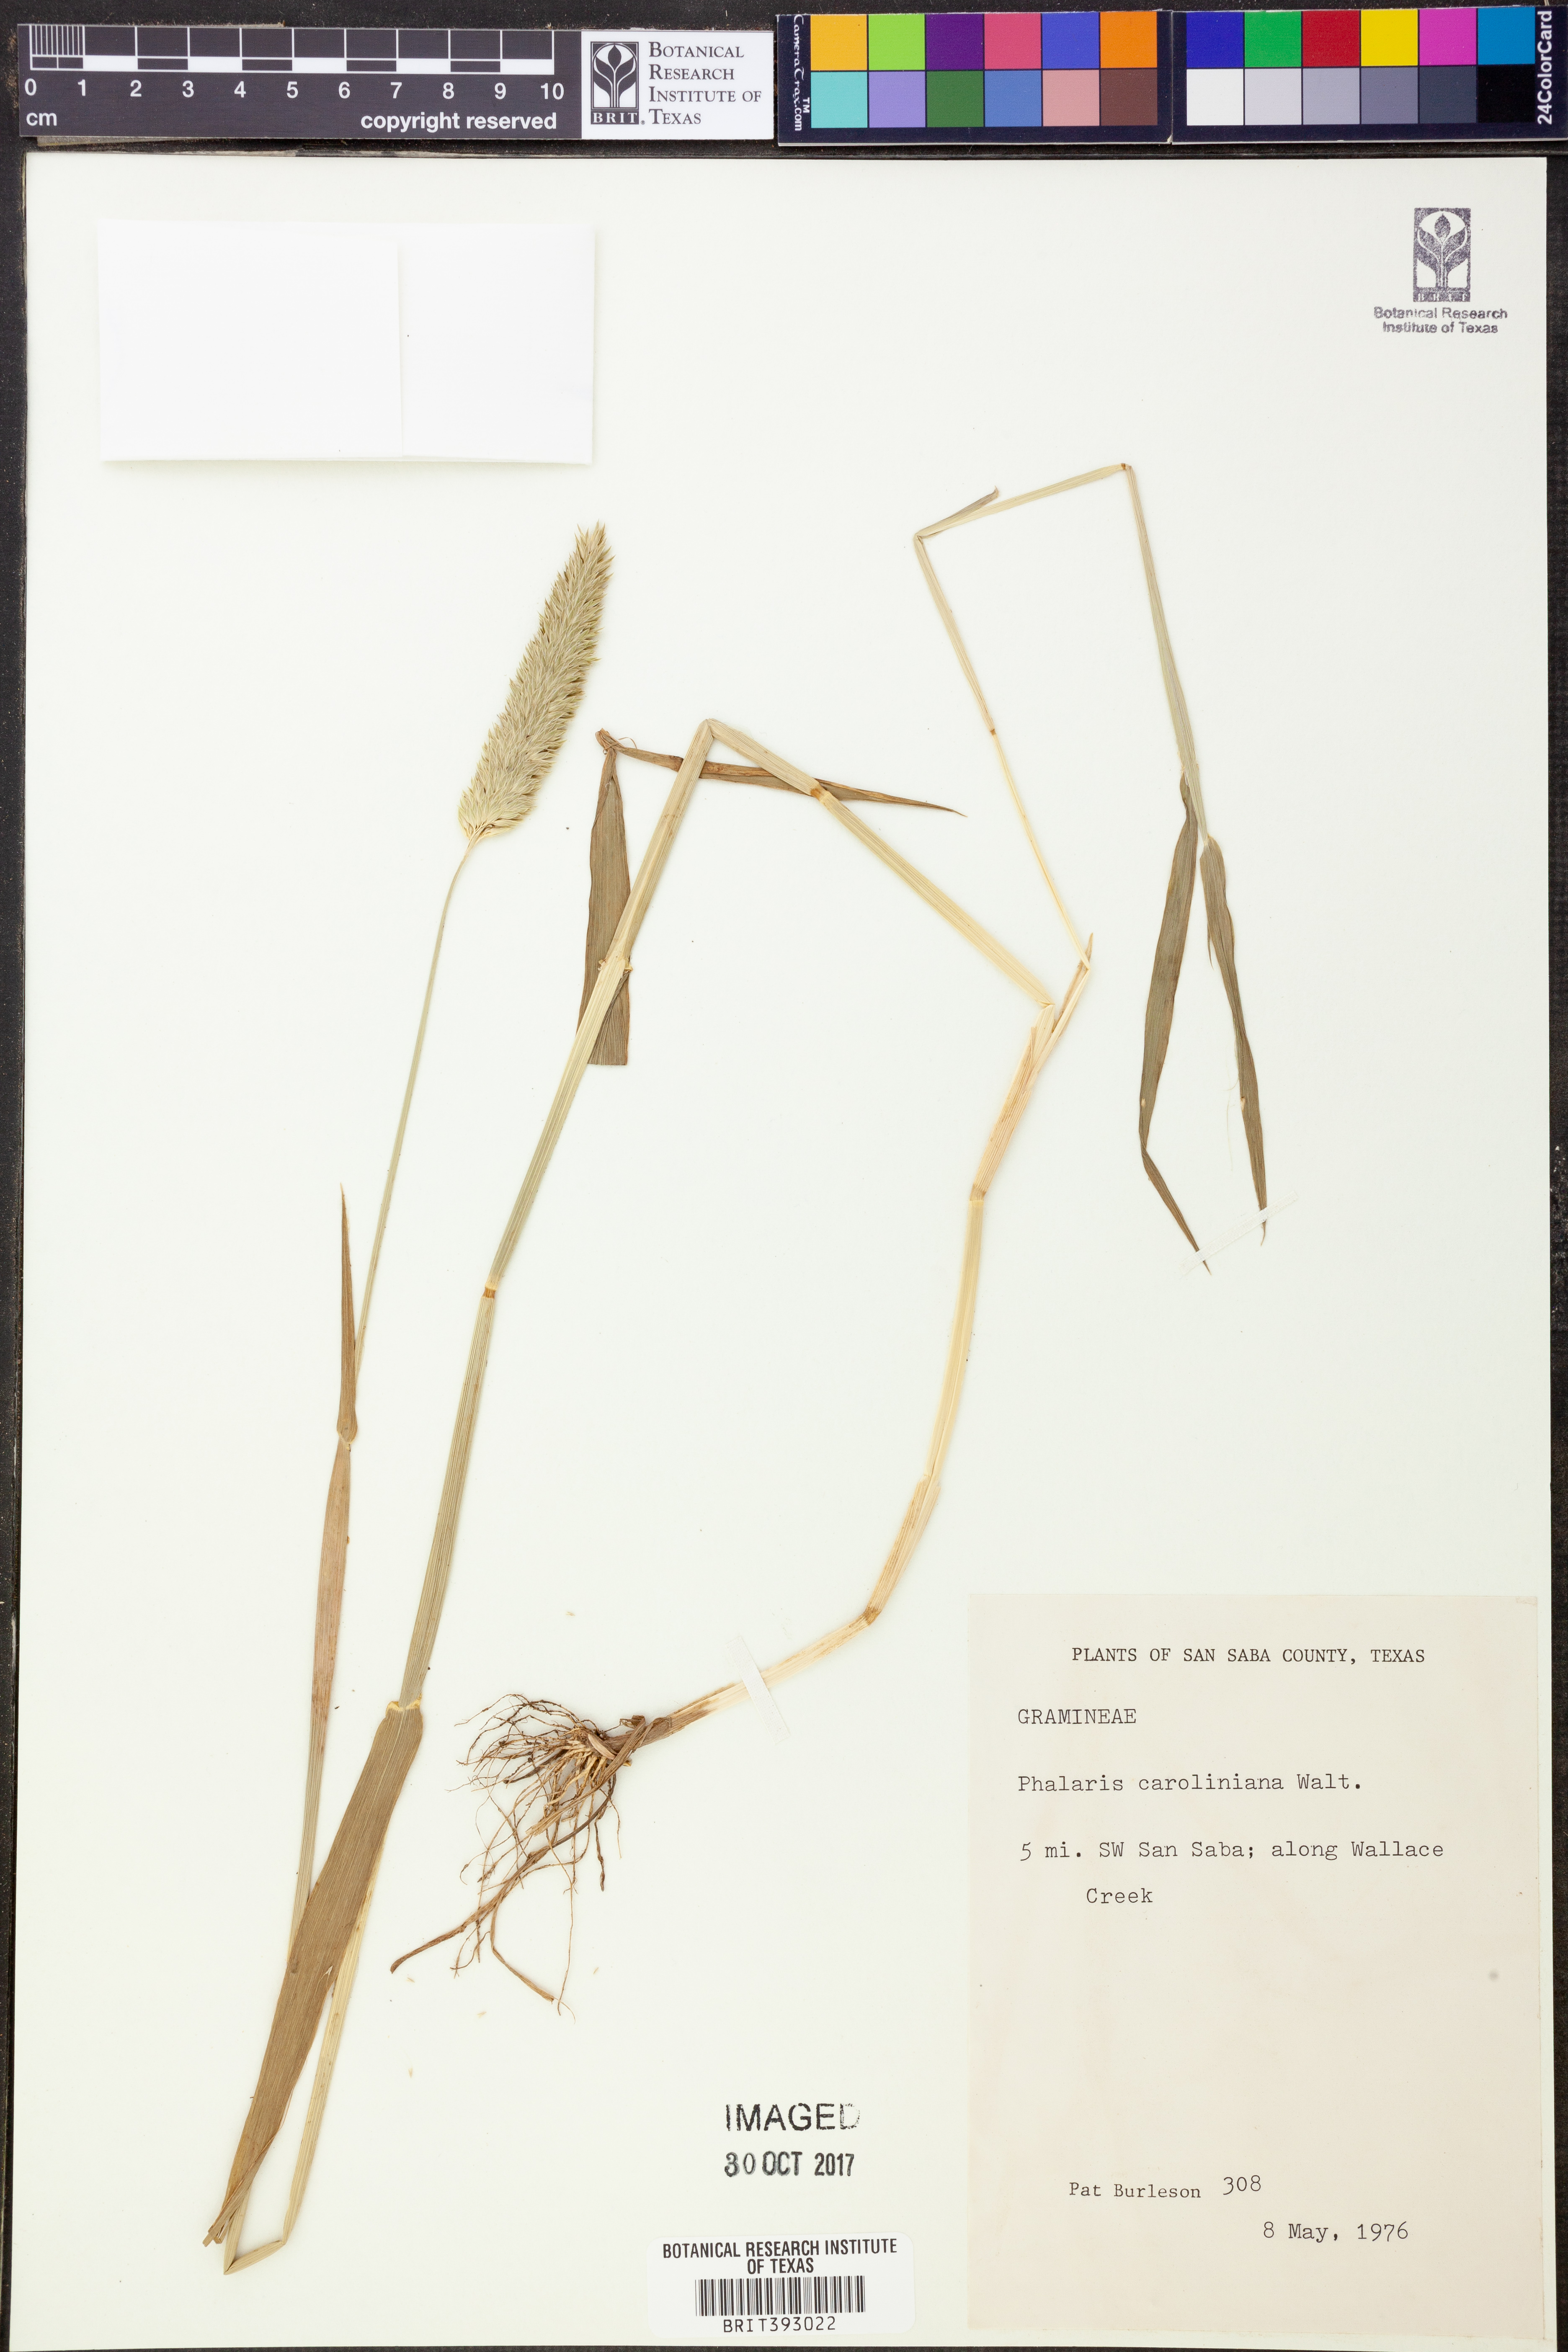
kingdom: Plantae
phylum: Tracheophyta
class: Liliopsida
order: Poales
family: Poaceae
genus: Phalaris
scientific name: Phalaris caroliniana
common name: May grass
